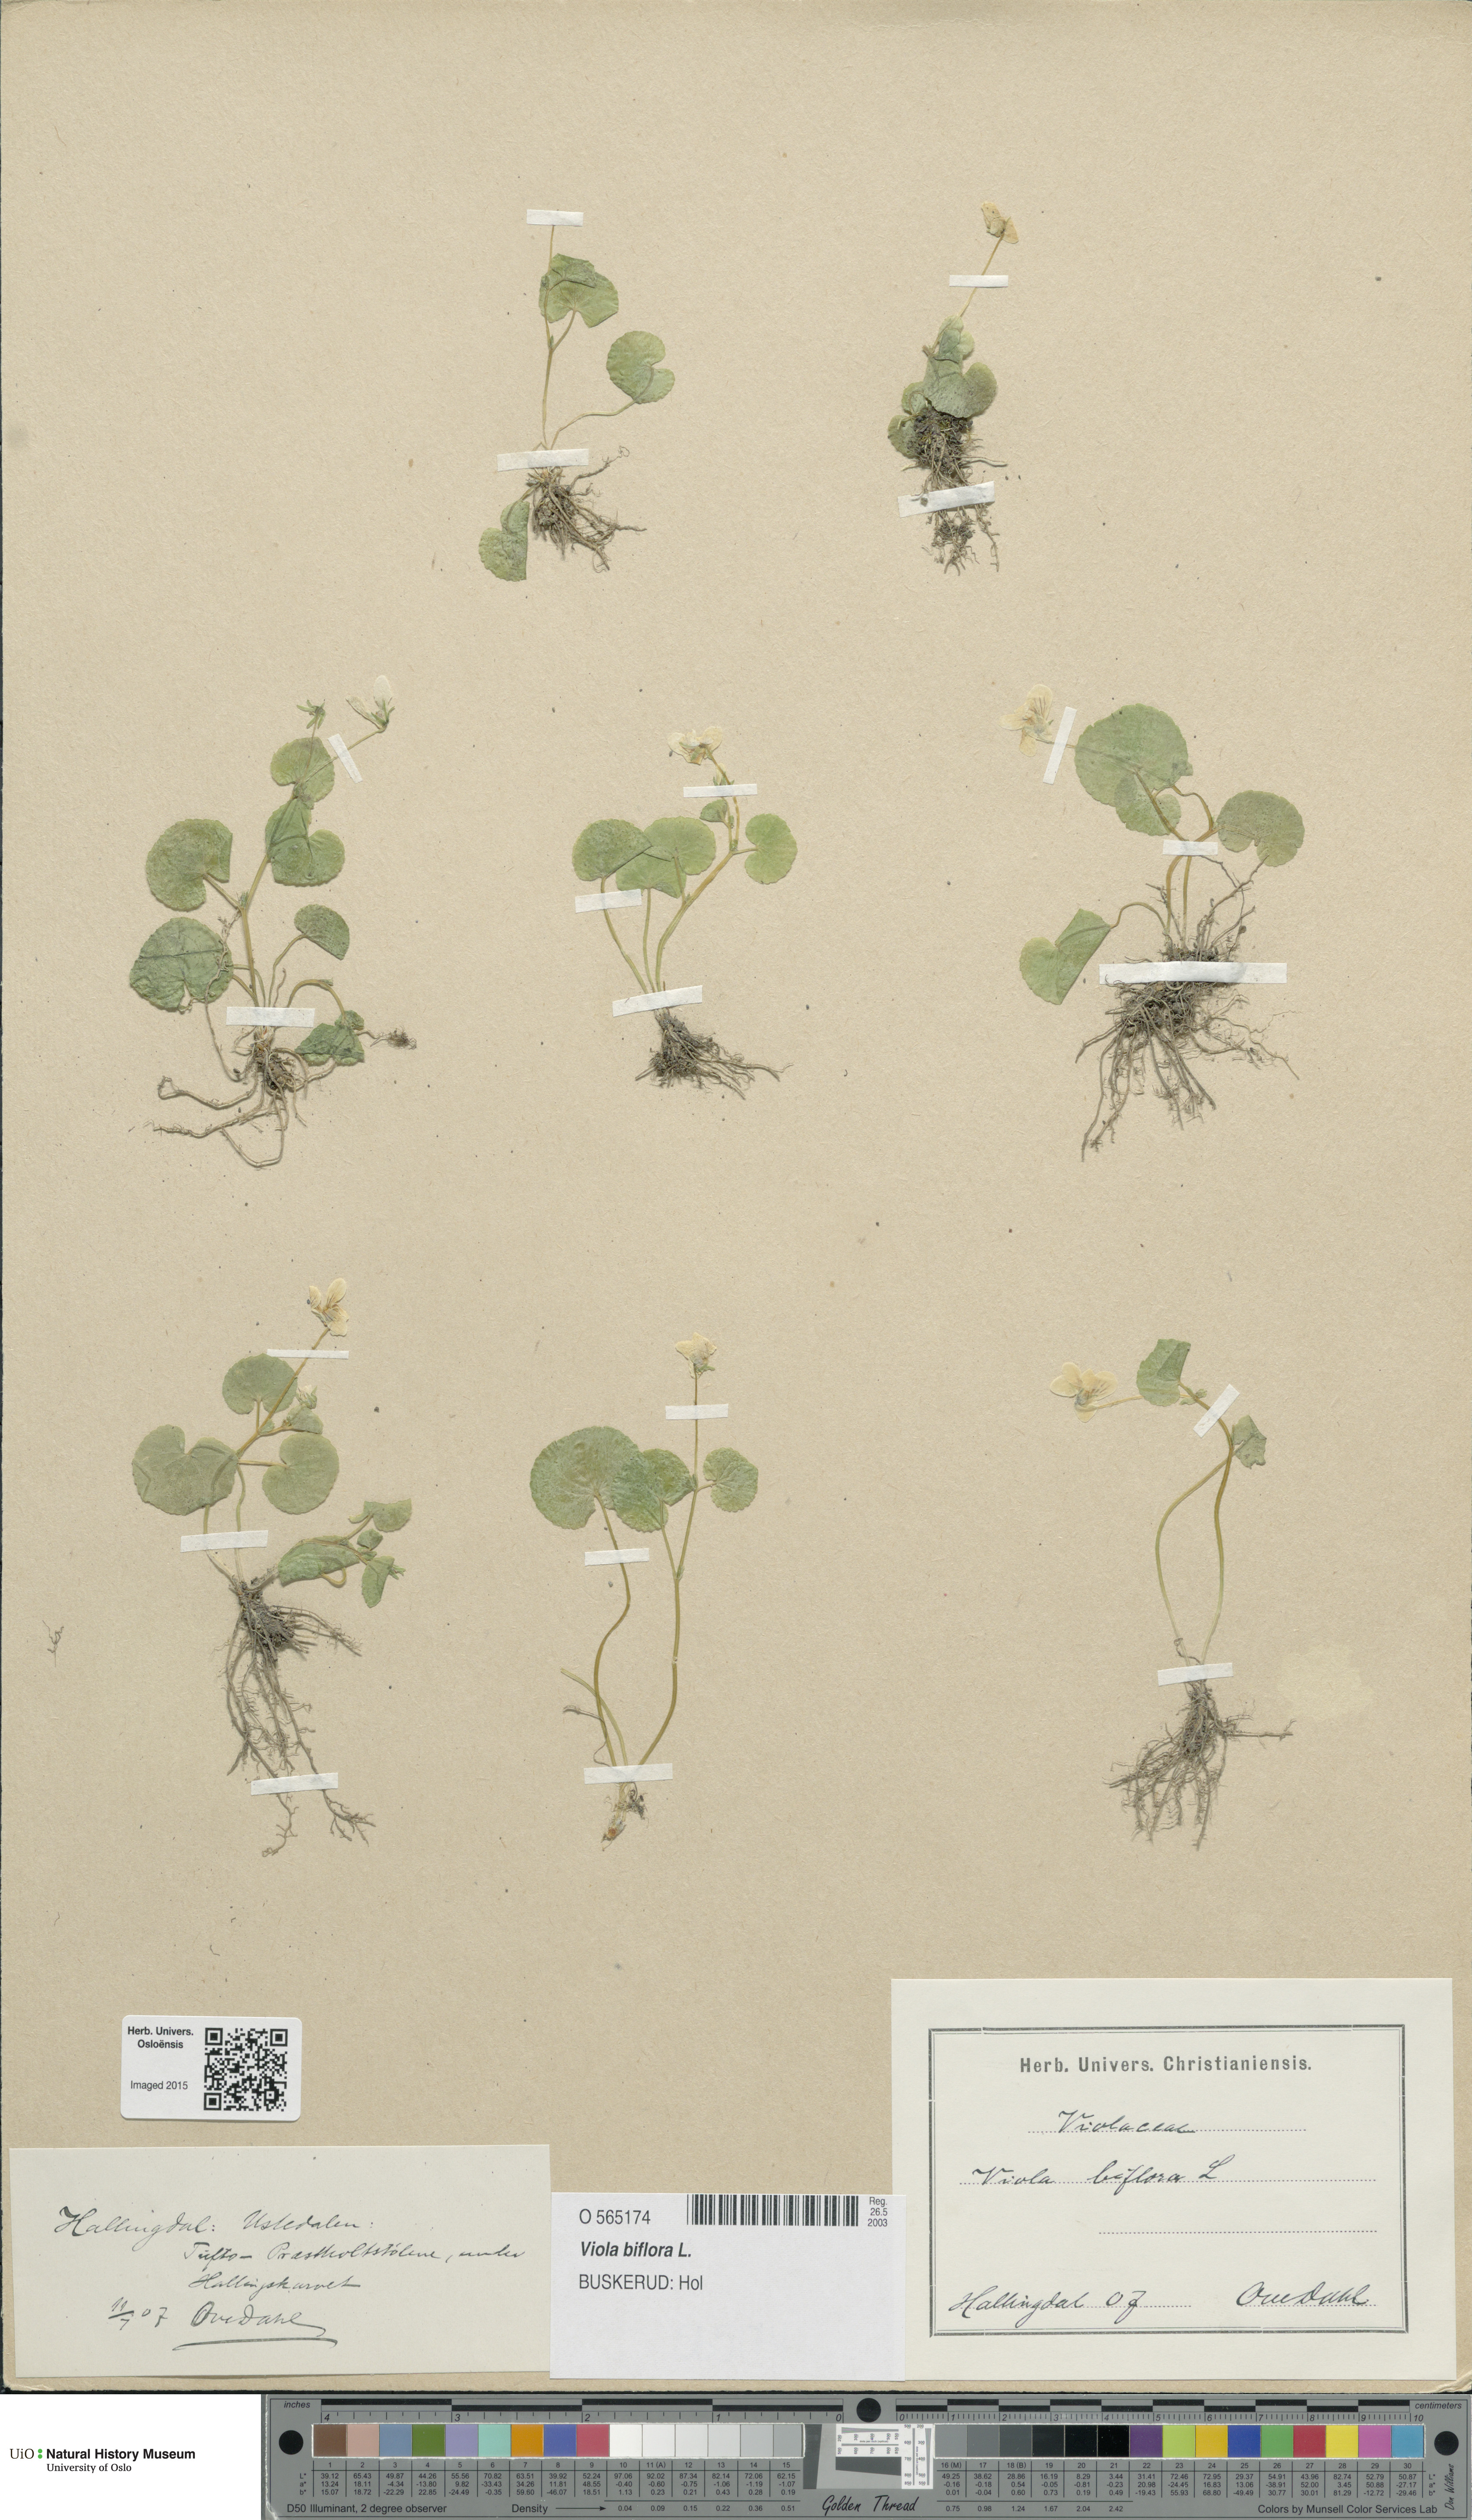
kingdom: Plantae
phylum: Tracheophyta
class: Magnoliopsida
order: Malpighiales
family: Violaceae
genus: Viola
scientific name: Viola biflora
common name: Alpine yellow violet
